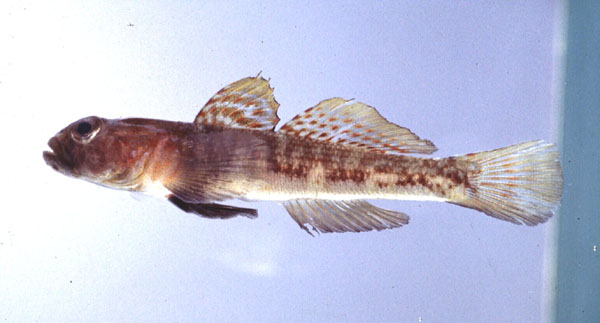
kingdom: Animalia
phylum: Chordata
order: Perciformes
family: Gobiidae
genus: Caffrogobius
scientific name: Caffrogobius agulhensis
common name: Agulhas goby
